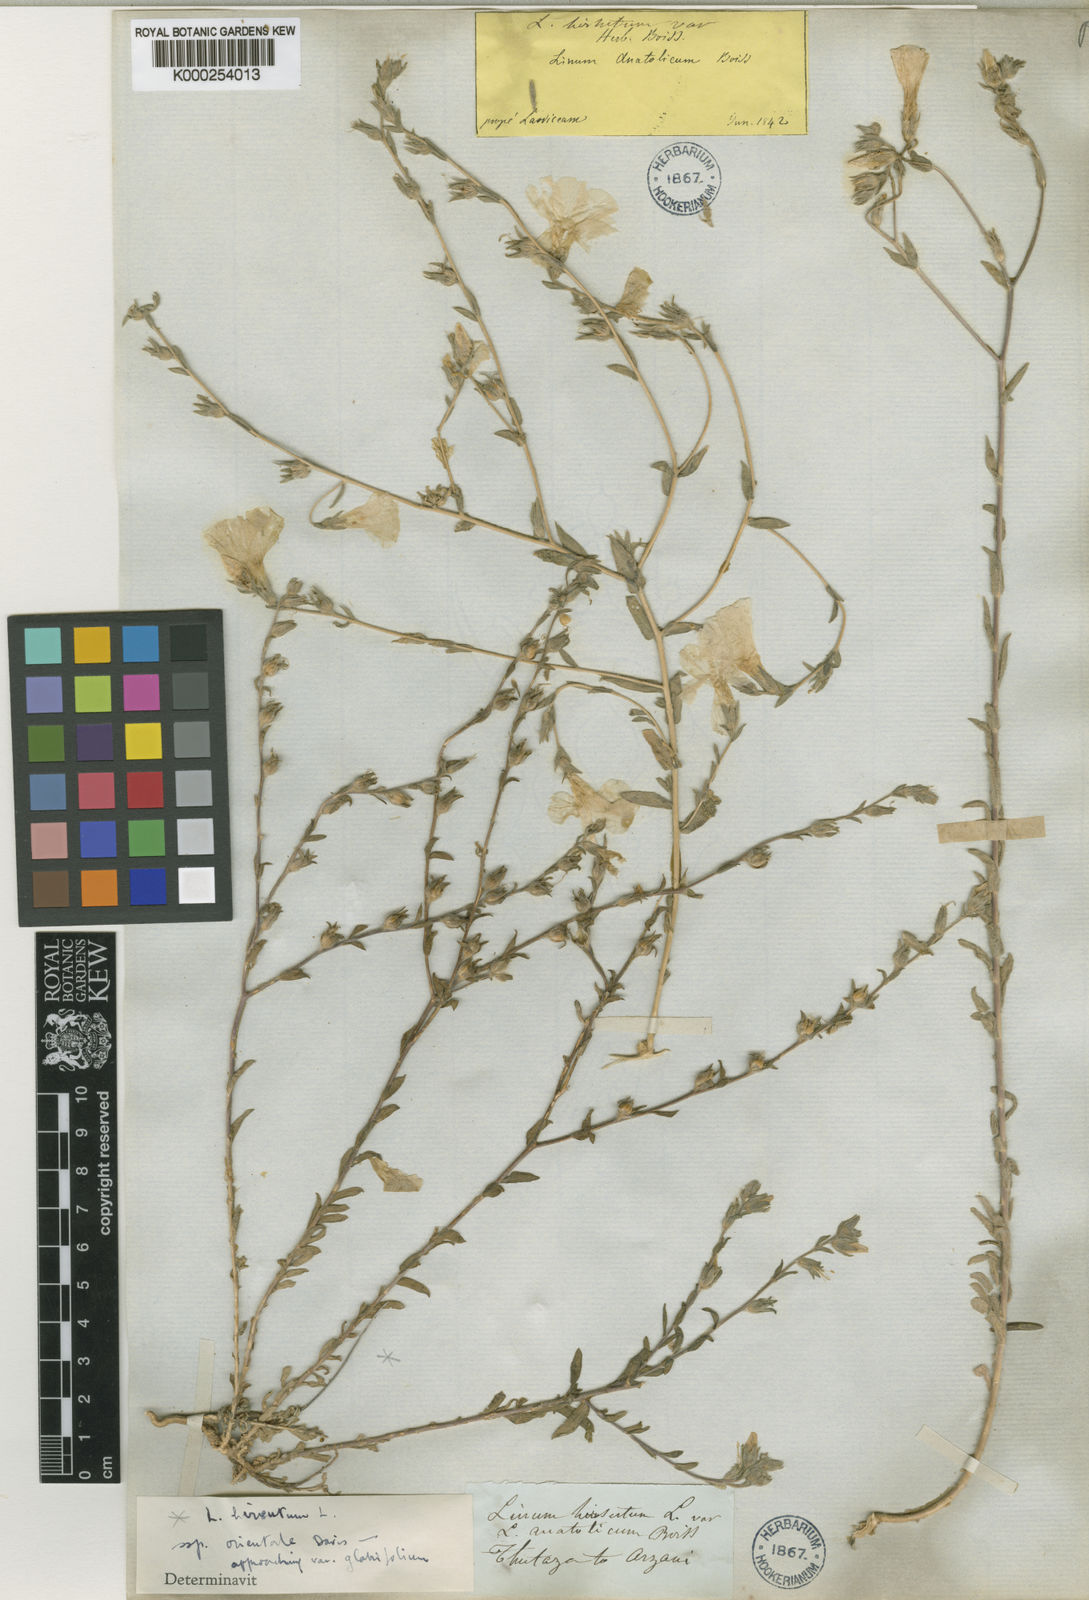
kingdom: Plantae
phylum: Tracheophyta
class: Magnoliopsida
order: Malpighiales
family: Linaceae
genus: Linum
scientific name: Linum hirsutum
